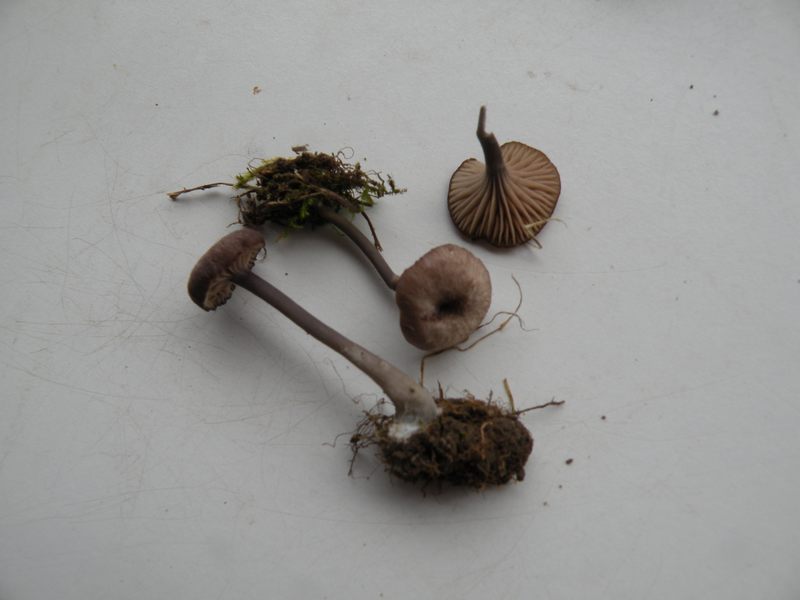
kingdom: Fungi
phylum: Basidiomycota
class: Agaricomycetes
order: Agaricales
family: Entolomataceae
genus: Entoloma
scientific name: Entoloma incarnatofuscescens
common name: tragt-rødblad
